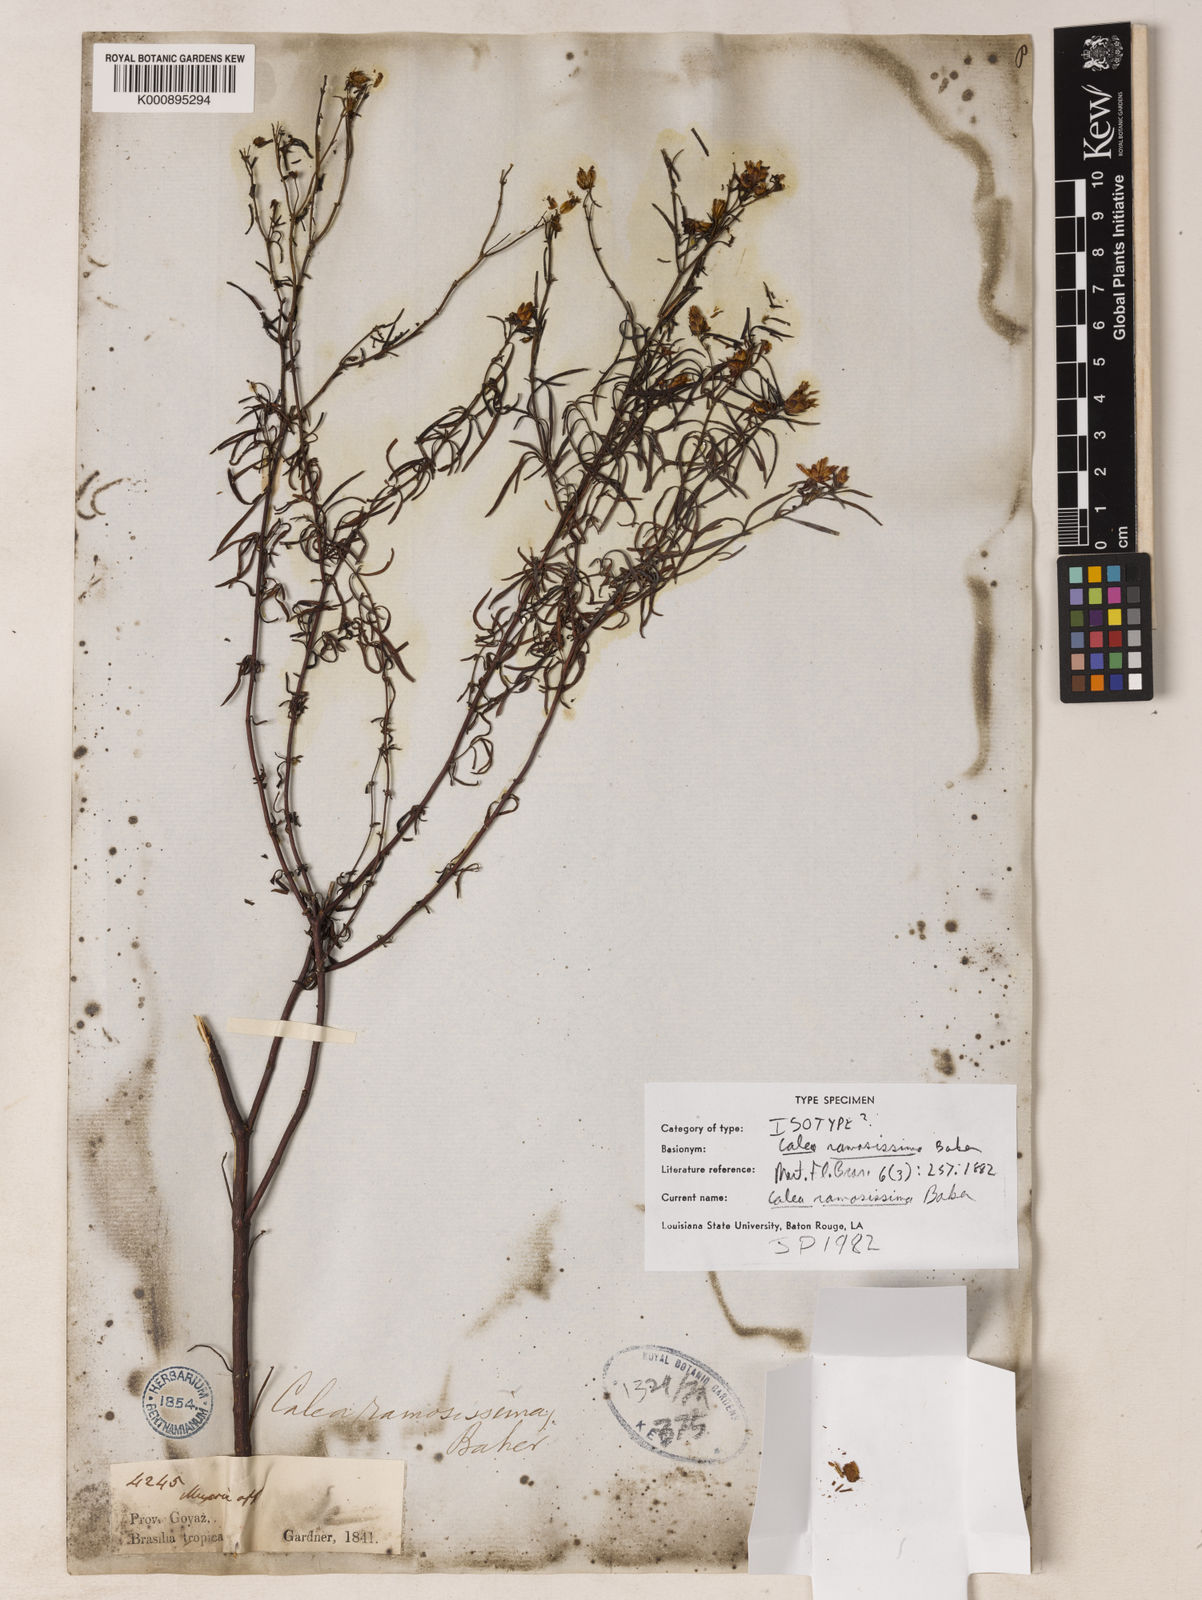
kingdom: Plantae
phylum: Tracheophyta
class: Magnoliopsida
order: Asterales
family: Asteraceae
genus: Calea
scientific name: Calea ramosissima
